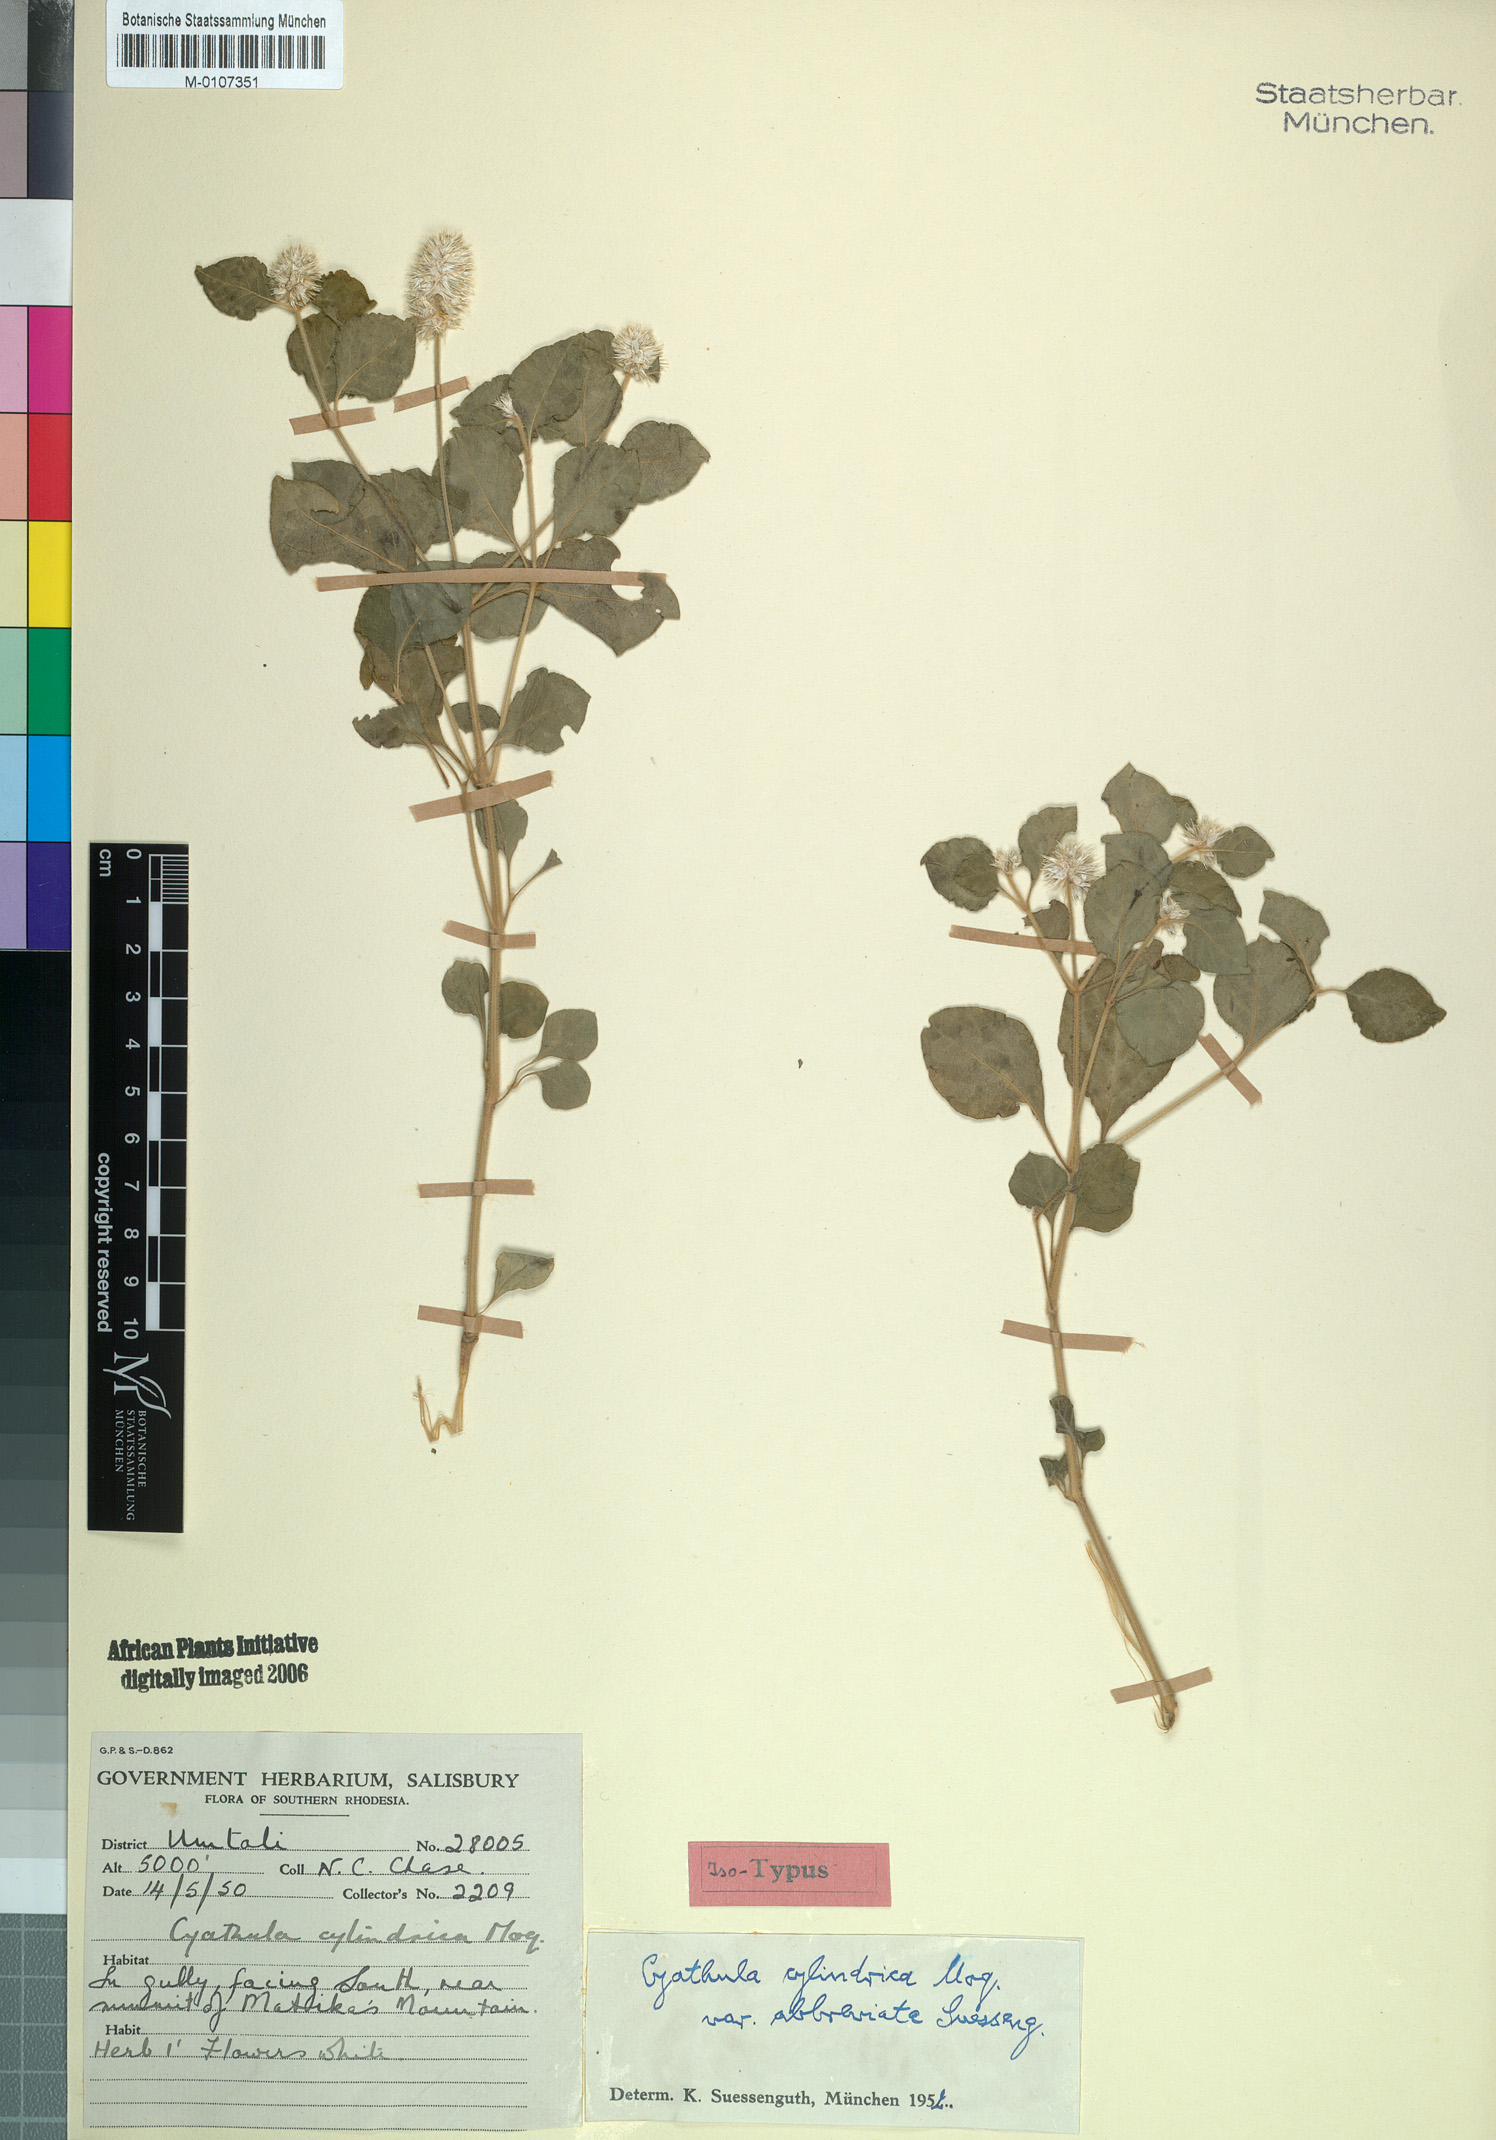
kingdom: Plantae
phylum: Tracheophyta
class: Magnoliopsida
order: Caryophyllales
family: Amaranthaceae
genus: Cyathula
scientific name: Cyathula cylindrica
